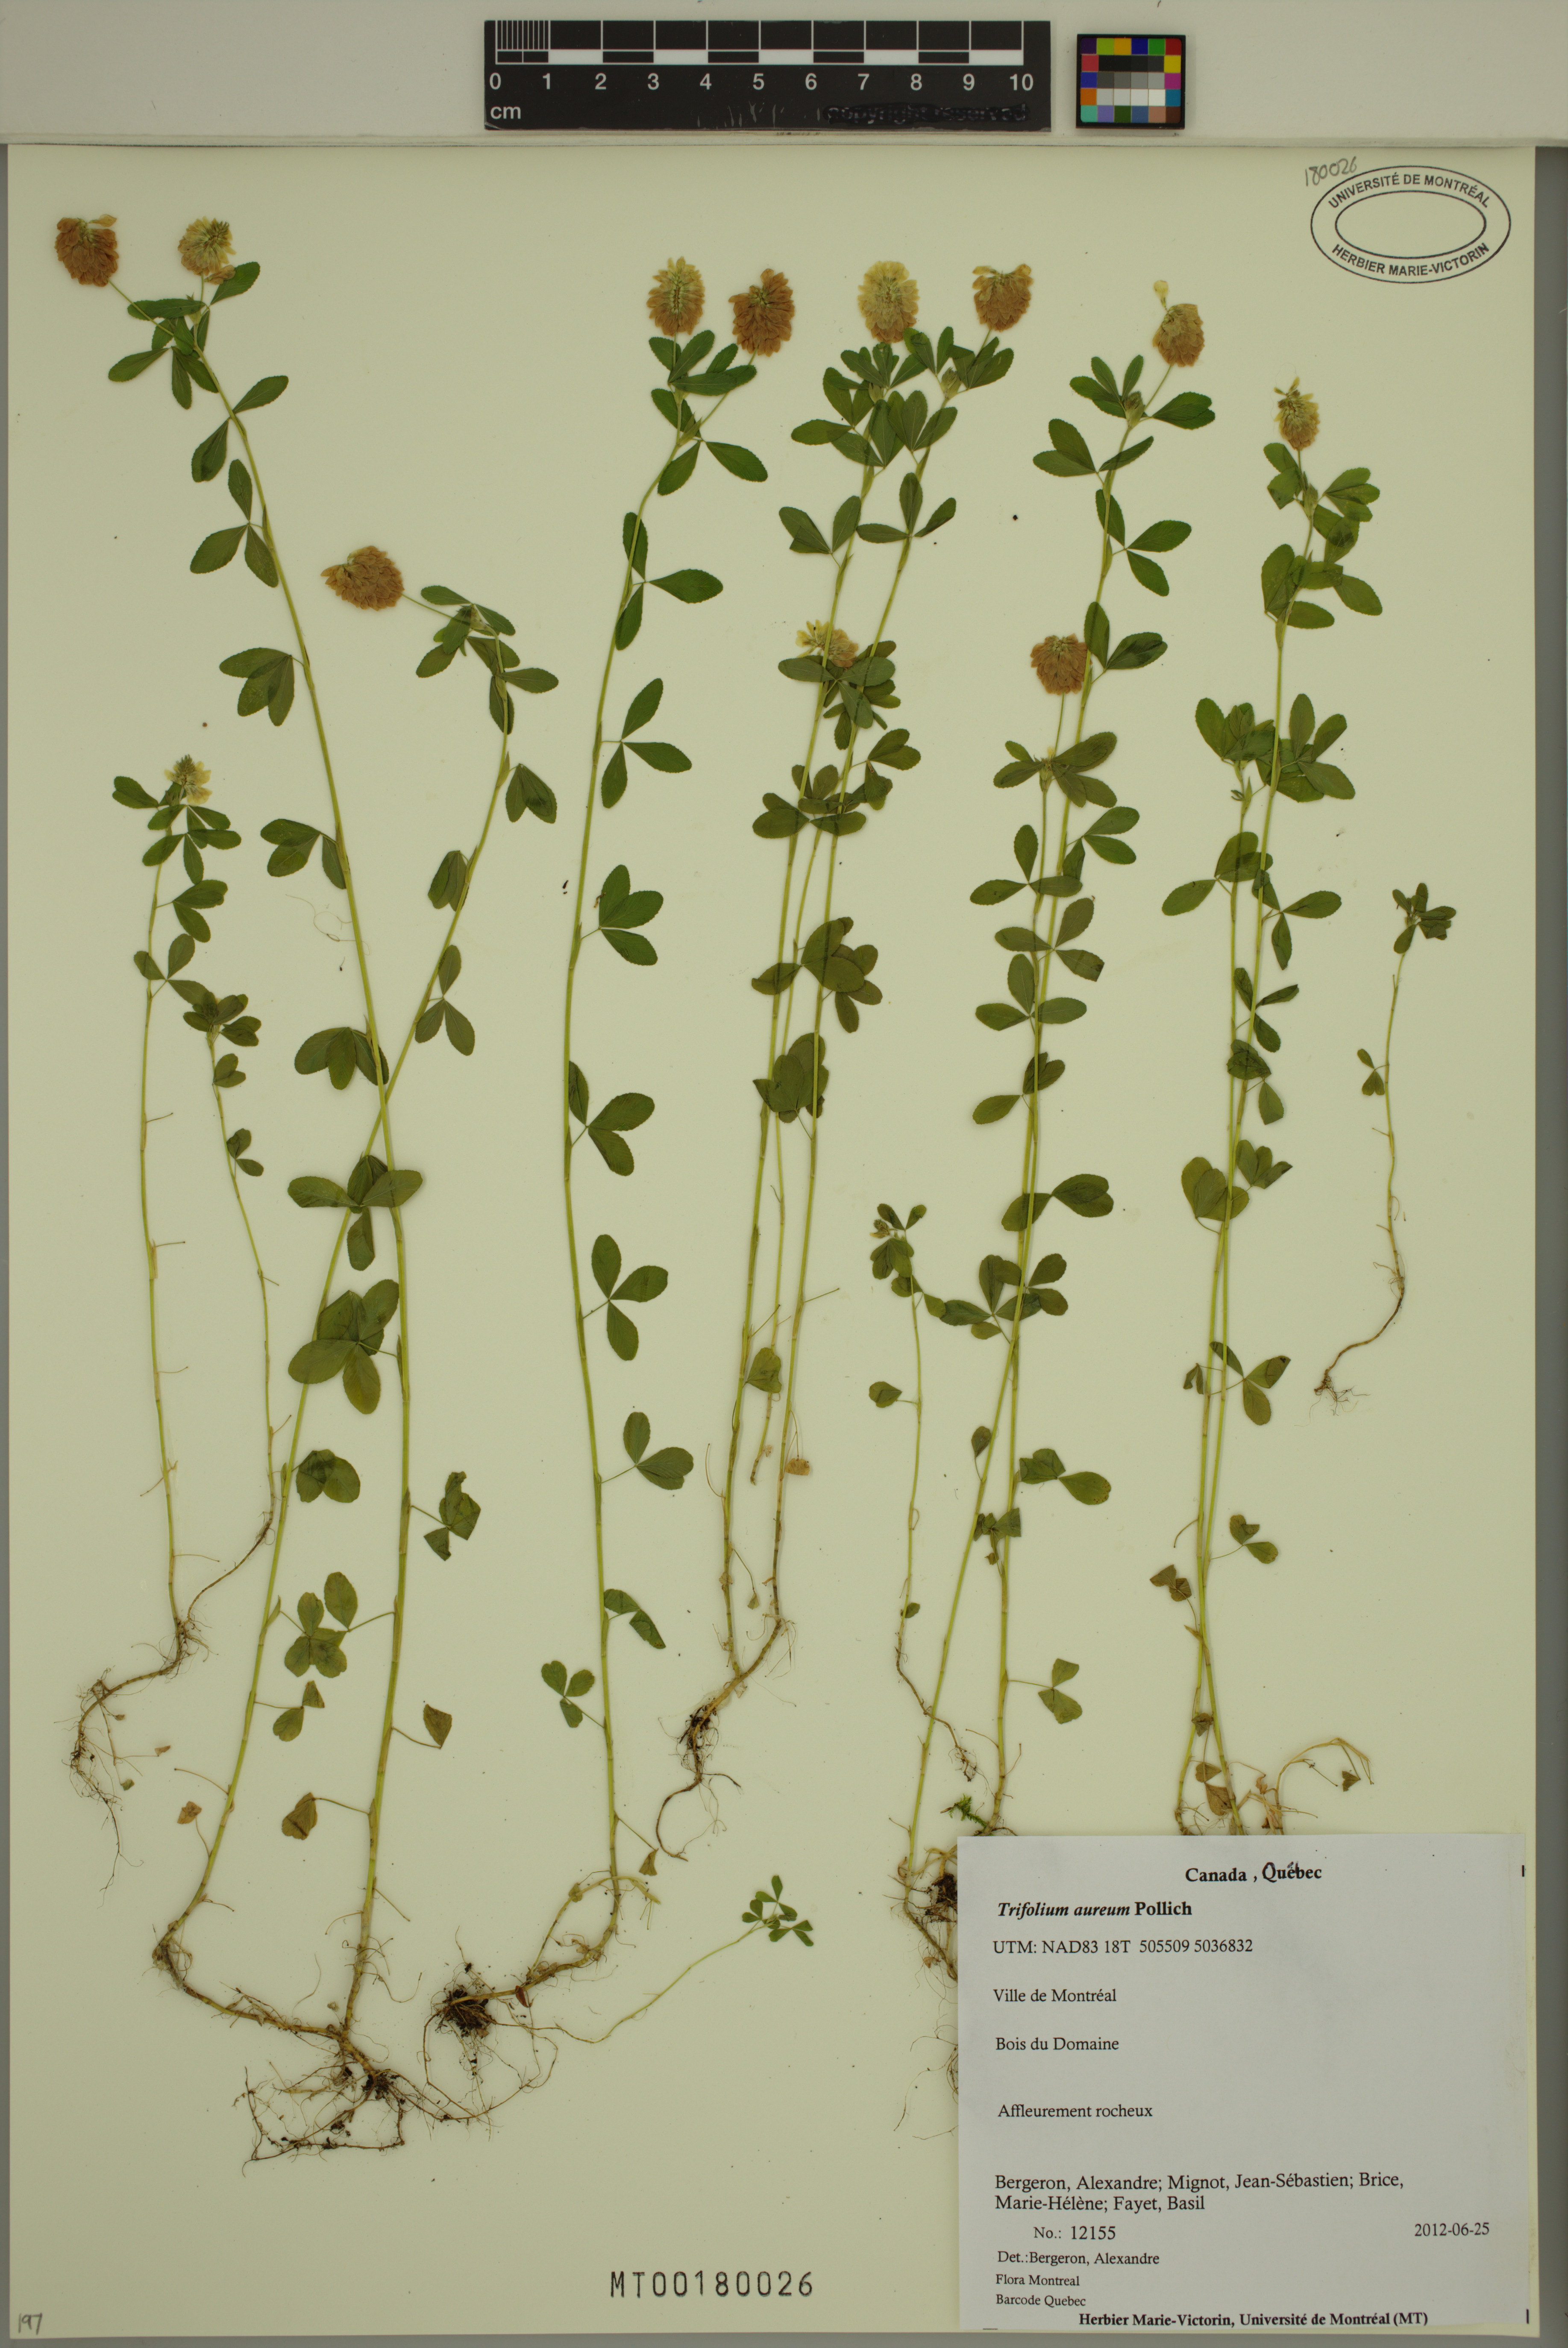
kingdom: Plantae
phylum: Tracheophyta
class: Magnoliopsida
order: Fabales
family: Fabaceae
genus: Trifolium
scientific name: Trifolium aureum
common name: Golden clover
